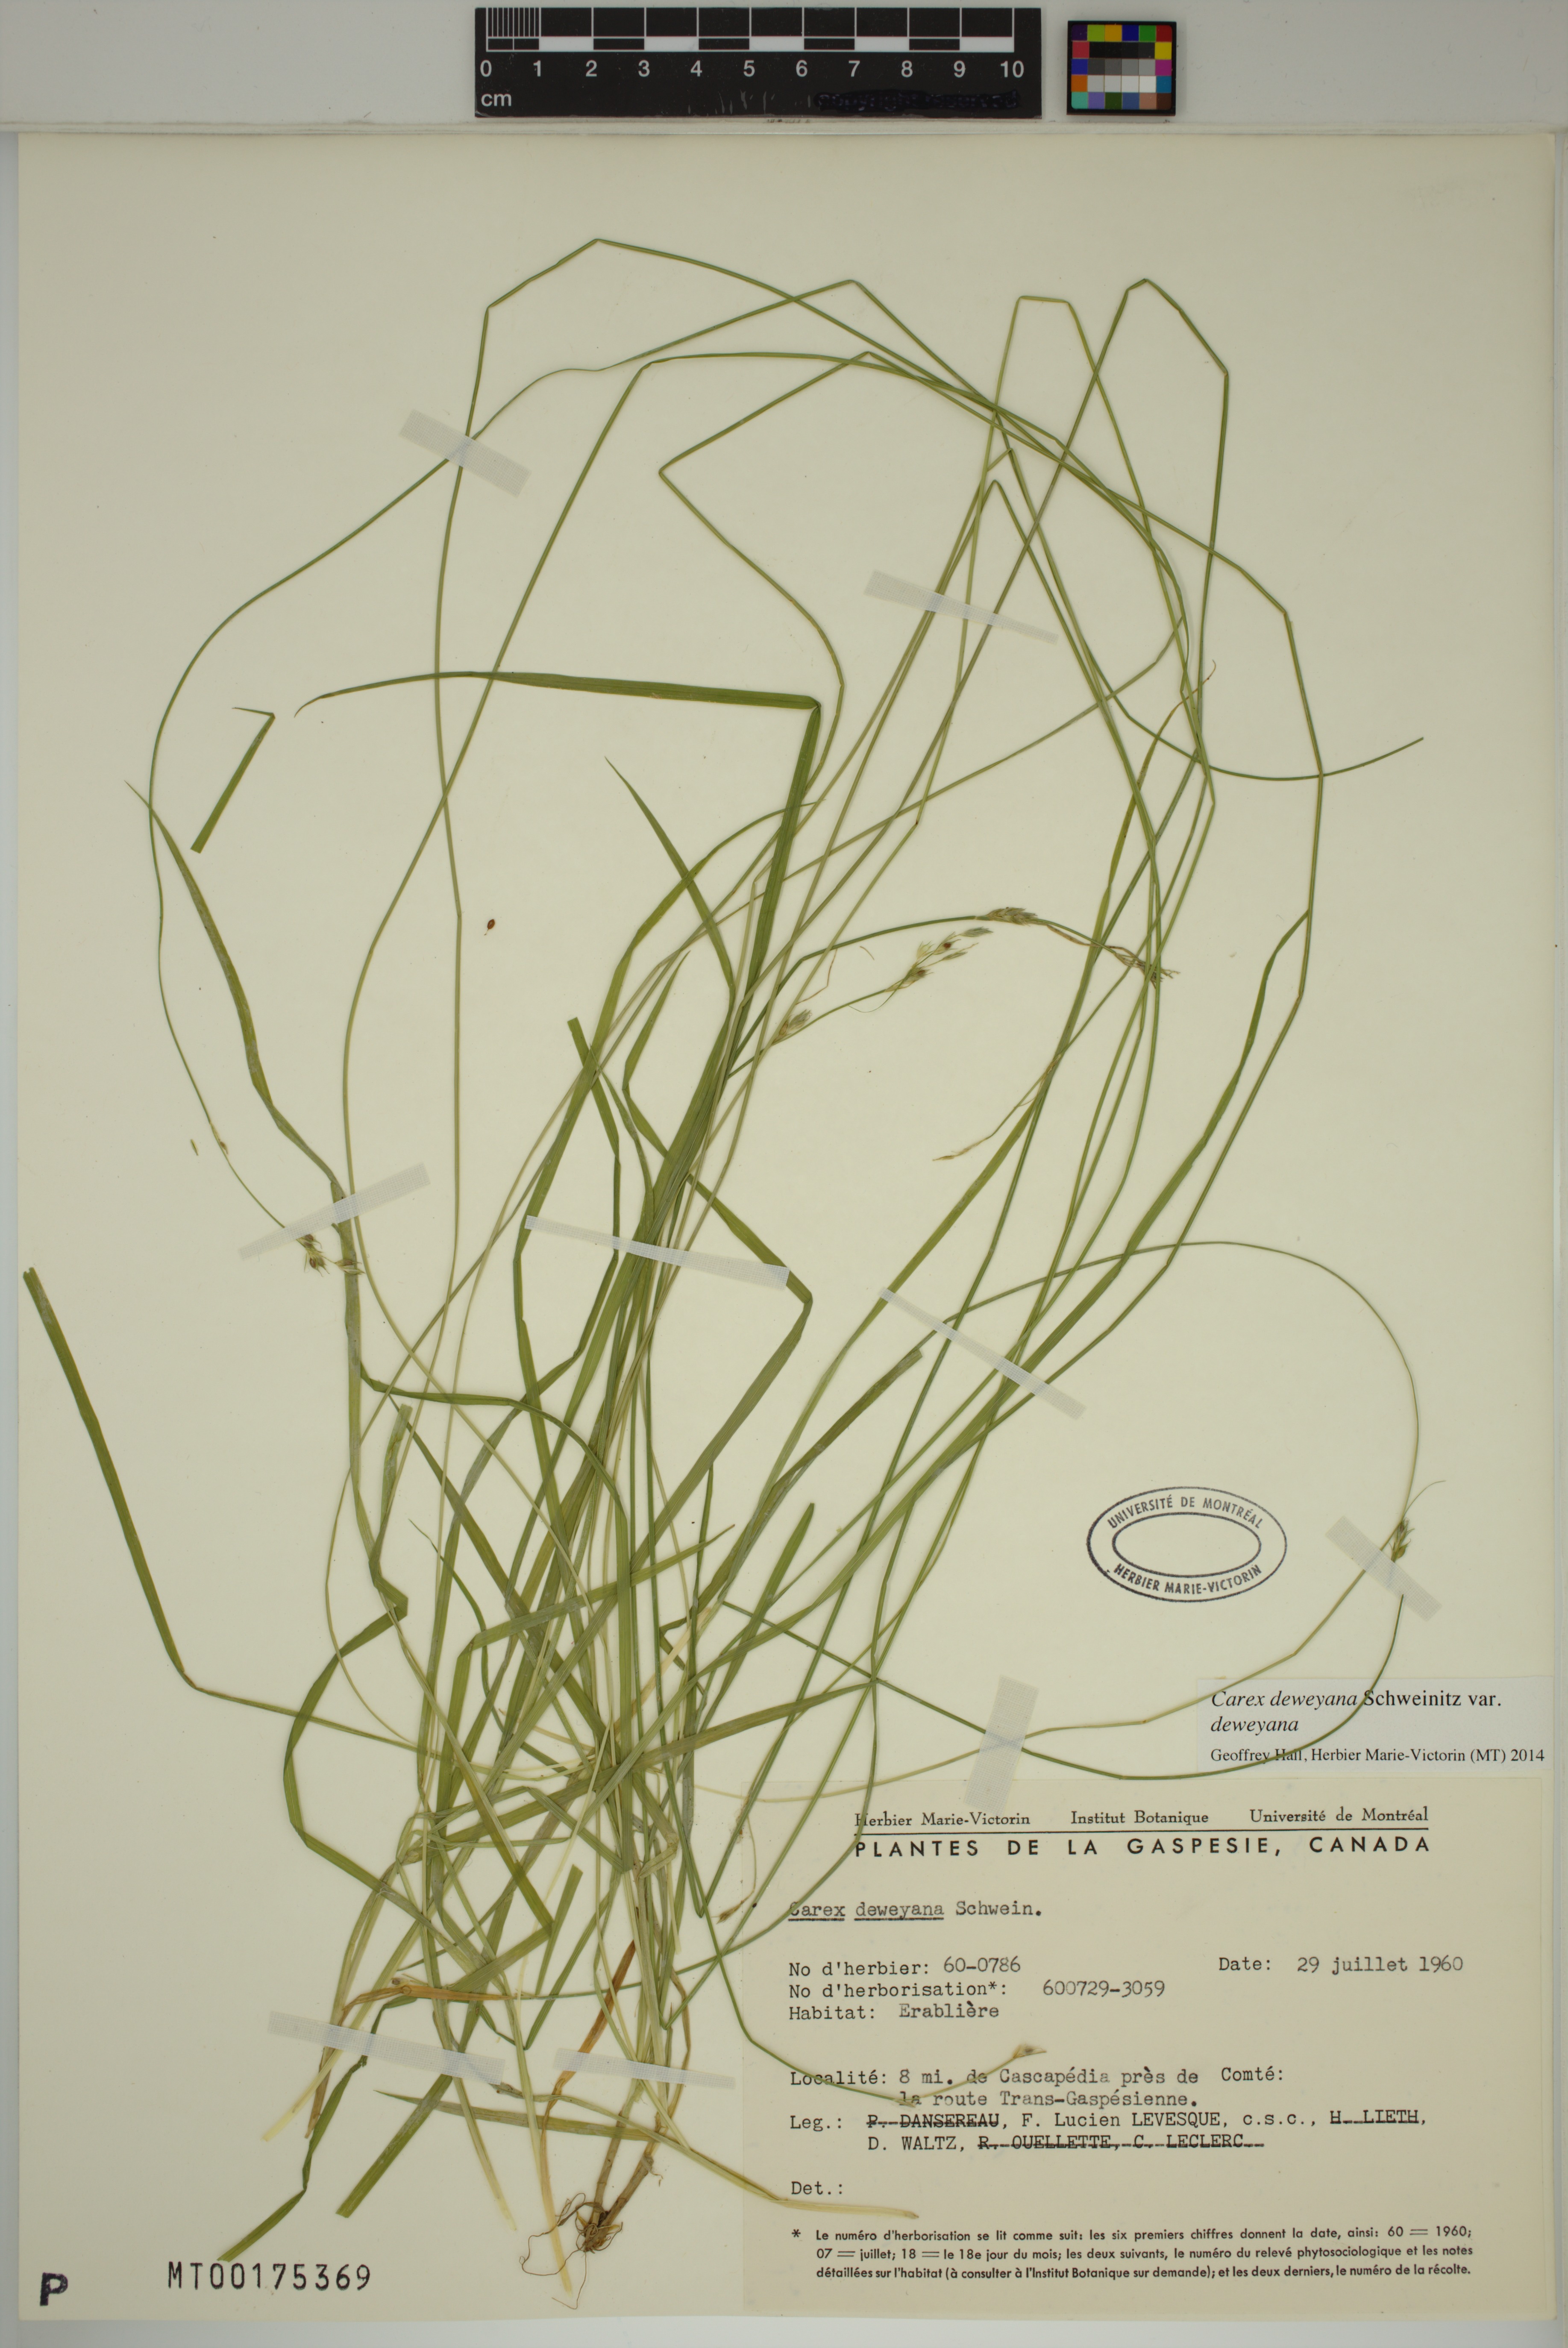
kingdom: Plantae
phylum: Tracheophyta
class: Liliopsida
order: Poales
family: Cyperaceae
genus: Carex
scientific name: Carex deweyana
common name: Dewey's sedge
